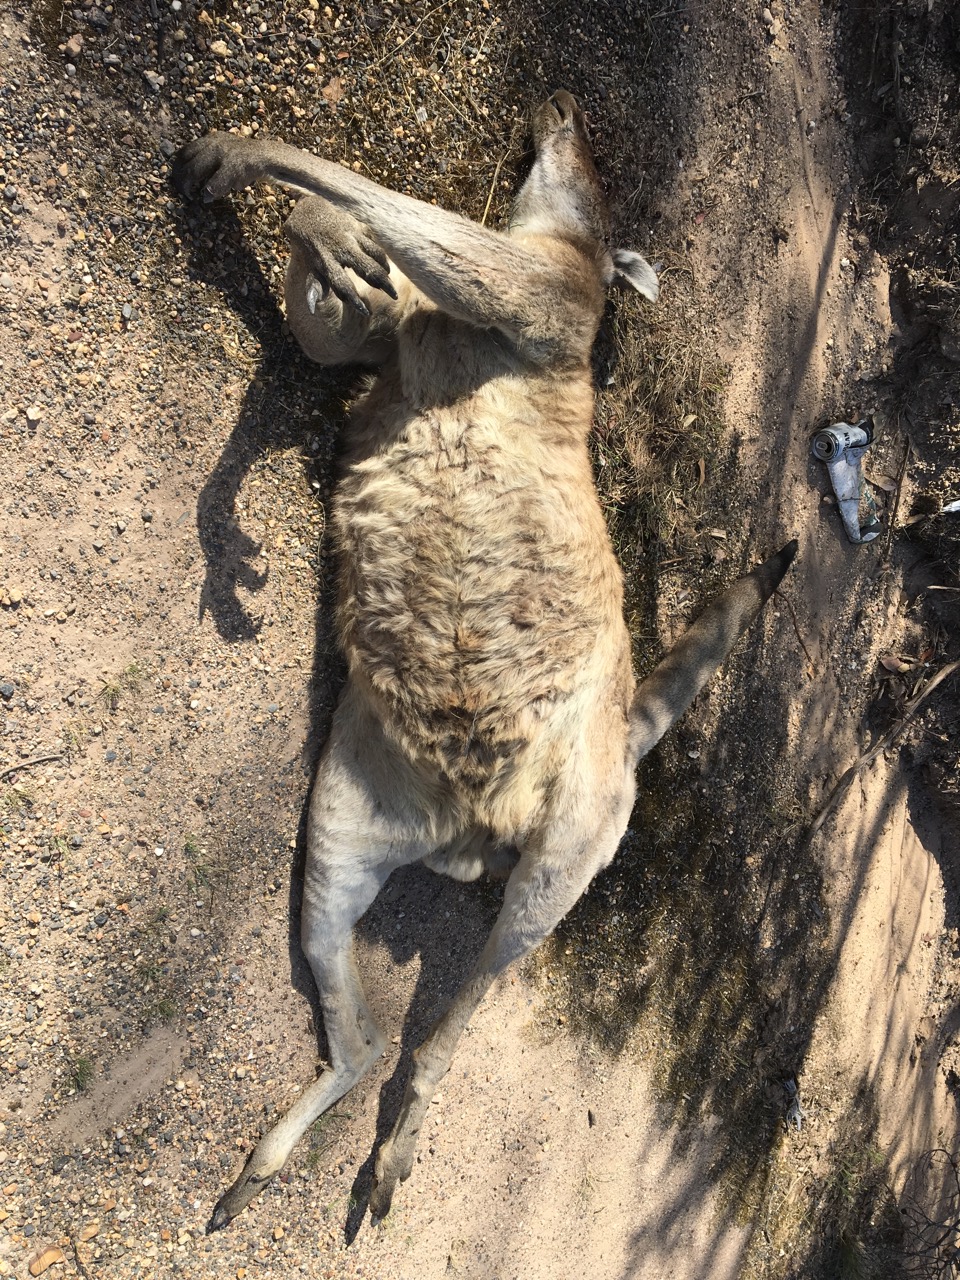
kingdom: Animalia
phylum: Chordata
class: Mammalia
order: Diprotodontia
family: Macropodidae
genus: Macropus
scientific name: Macropus giganteus
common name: Eastern grey kangaroo
